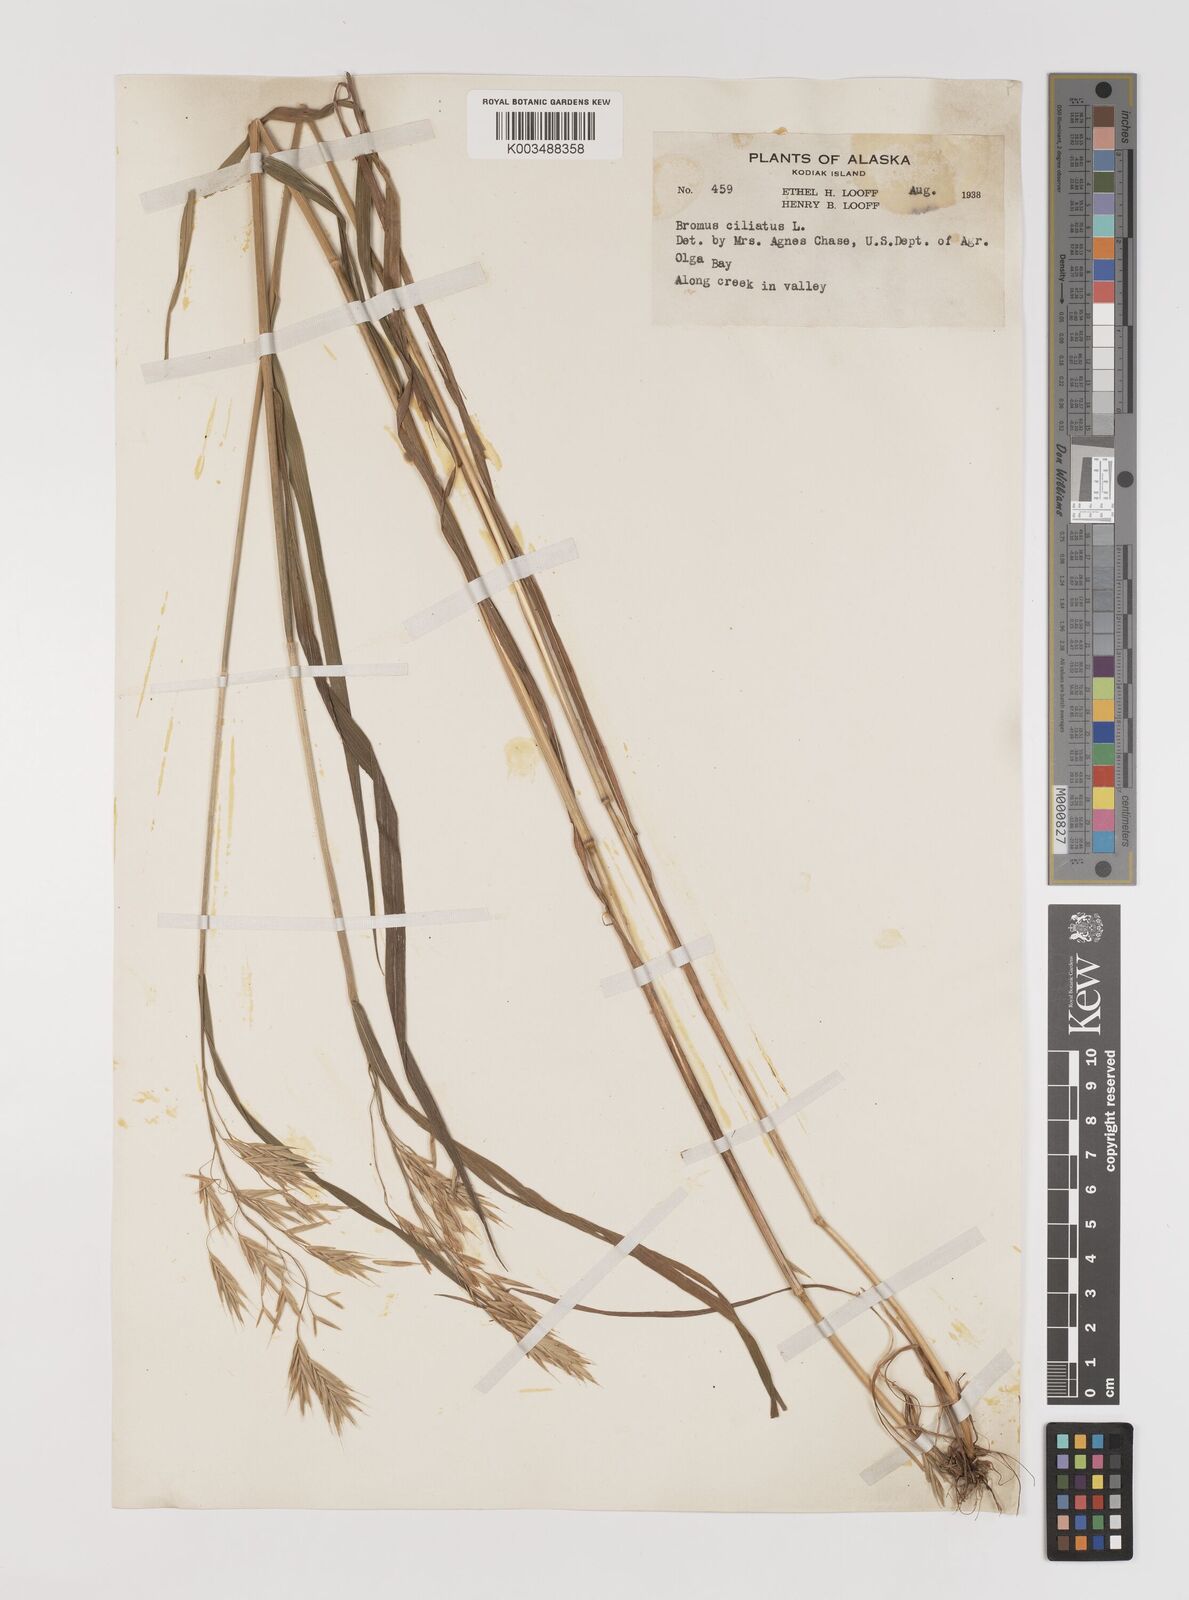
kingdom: Plantae
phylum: Tracheophyta
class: Liliopsida
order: Poales
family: Poaceae
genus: Bromus
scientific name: Bromus ciliatus
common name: Fringe brome
